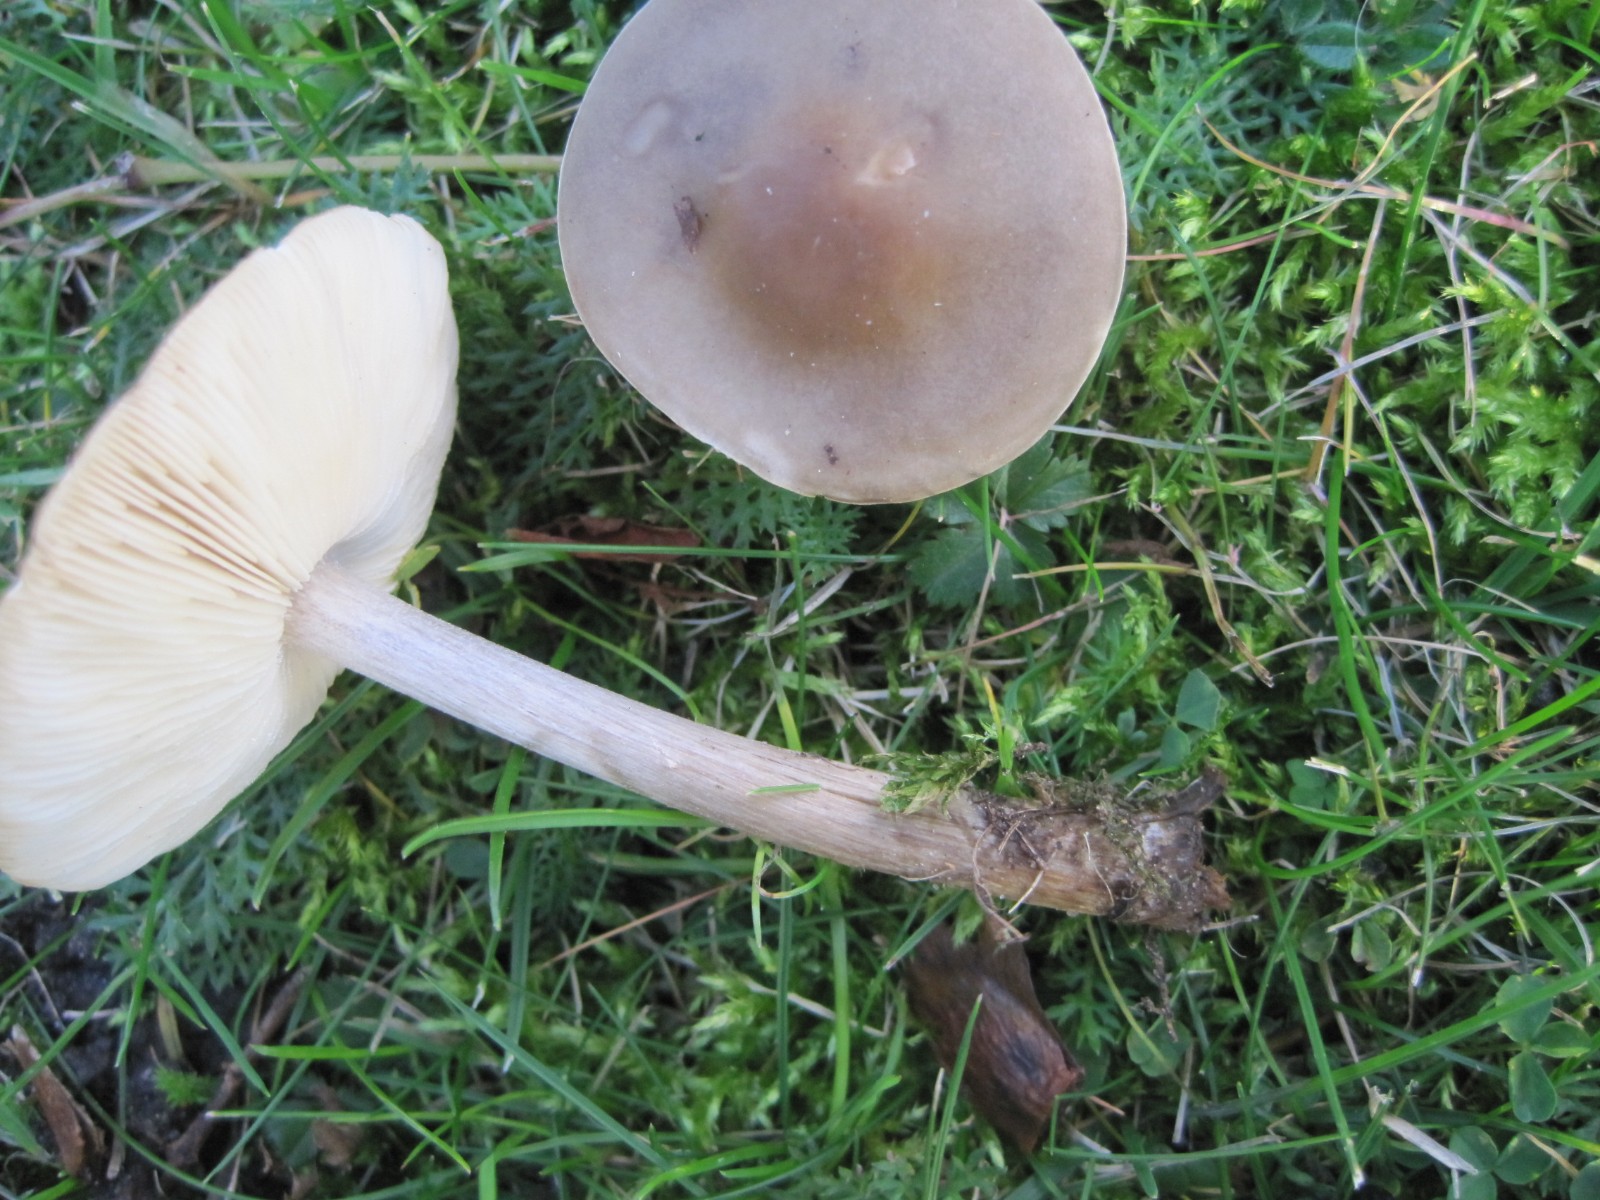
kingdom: Fungi
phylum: Basidiomycota
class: Agaricomycetes
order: Agaricales
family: Tricholomataceae
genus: Melanoleuca
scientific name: Melanoleuca polioleuca
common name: almindelig munkehat
